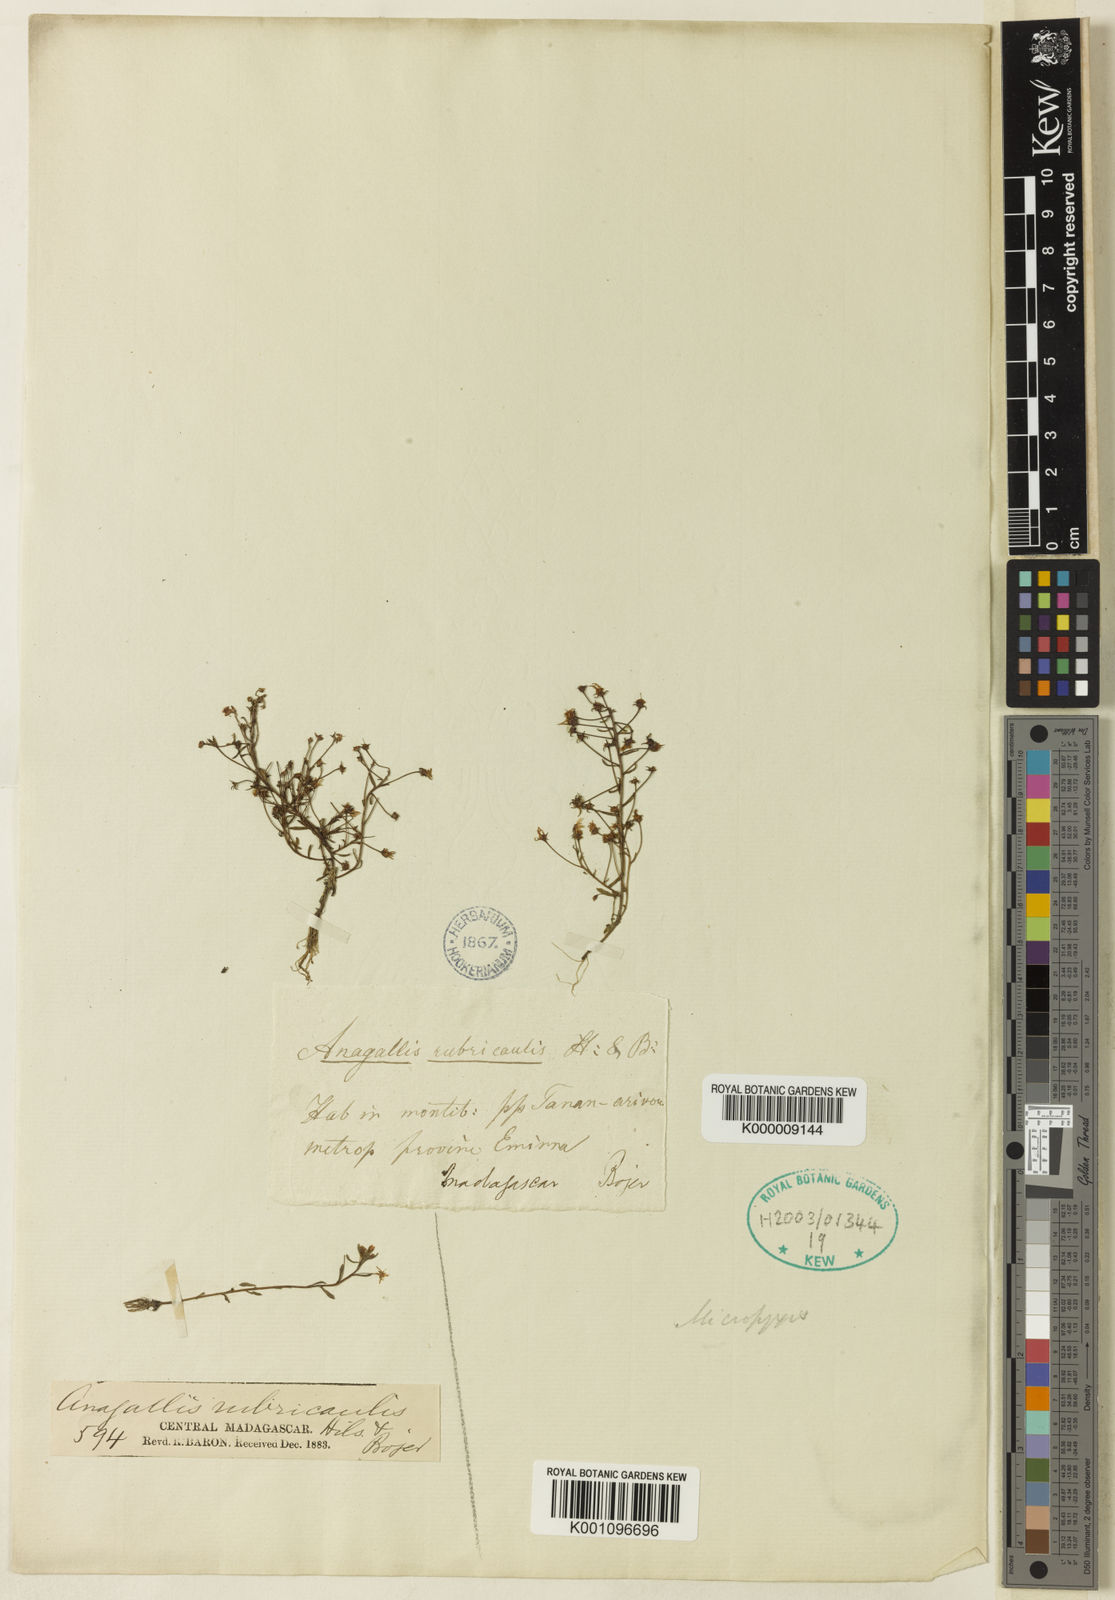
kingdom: Plantae
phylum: Tracheophyta
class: Magnoliopsida
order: Ericales
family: Primulaceae
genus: Lysimachia
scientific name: Lysimachia rubricaulis
